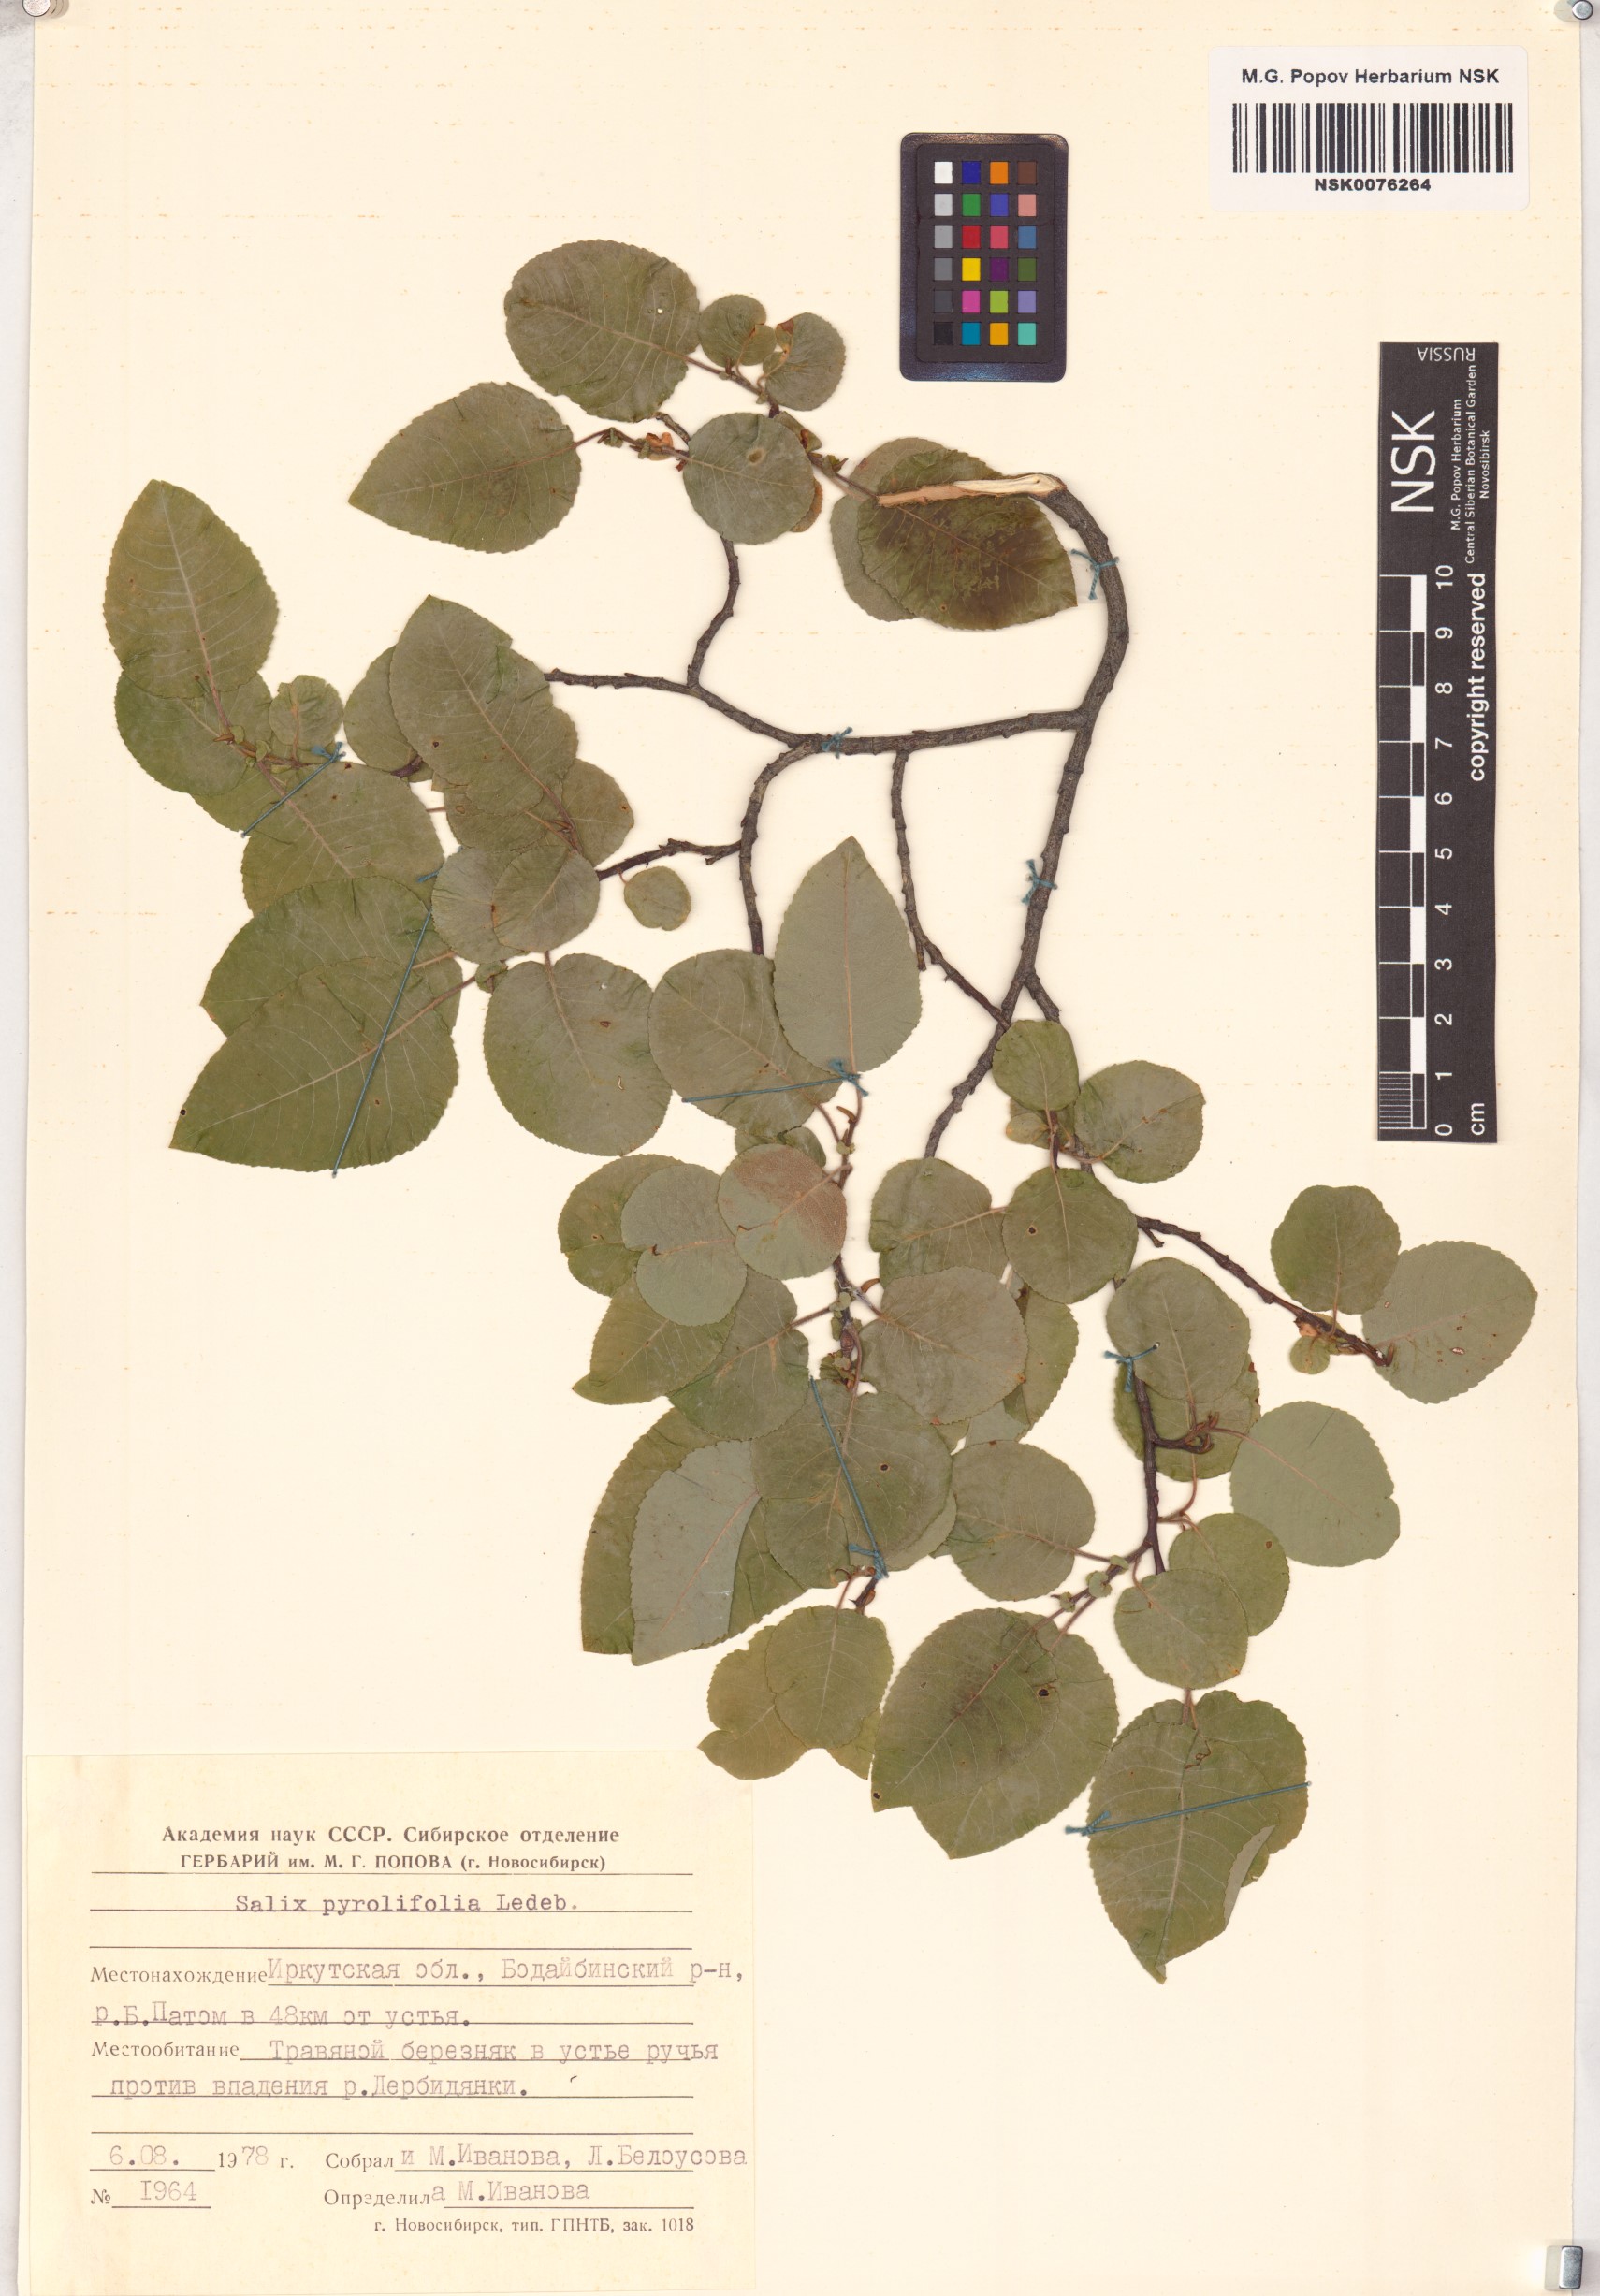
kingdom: Plantae
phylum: Tracheophyta
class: Magnoliopsida
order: Malpighiales
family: Salicaceae
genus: Salix
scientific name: Salix pyrolifolia
